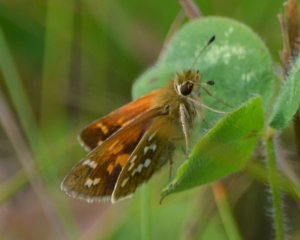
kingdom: Animalia
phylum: Arthropoda
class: Insecta
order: Lepidoptera
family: Hesperiidae
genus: Hesperia
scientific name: Hesperia comma
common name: Common Branded Skipper
